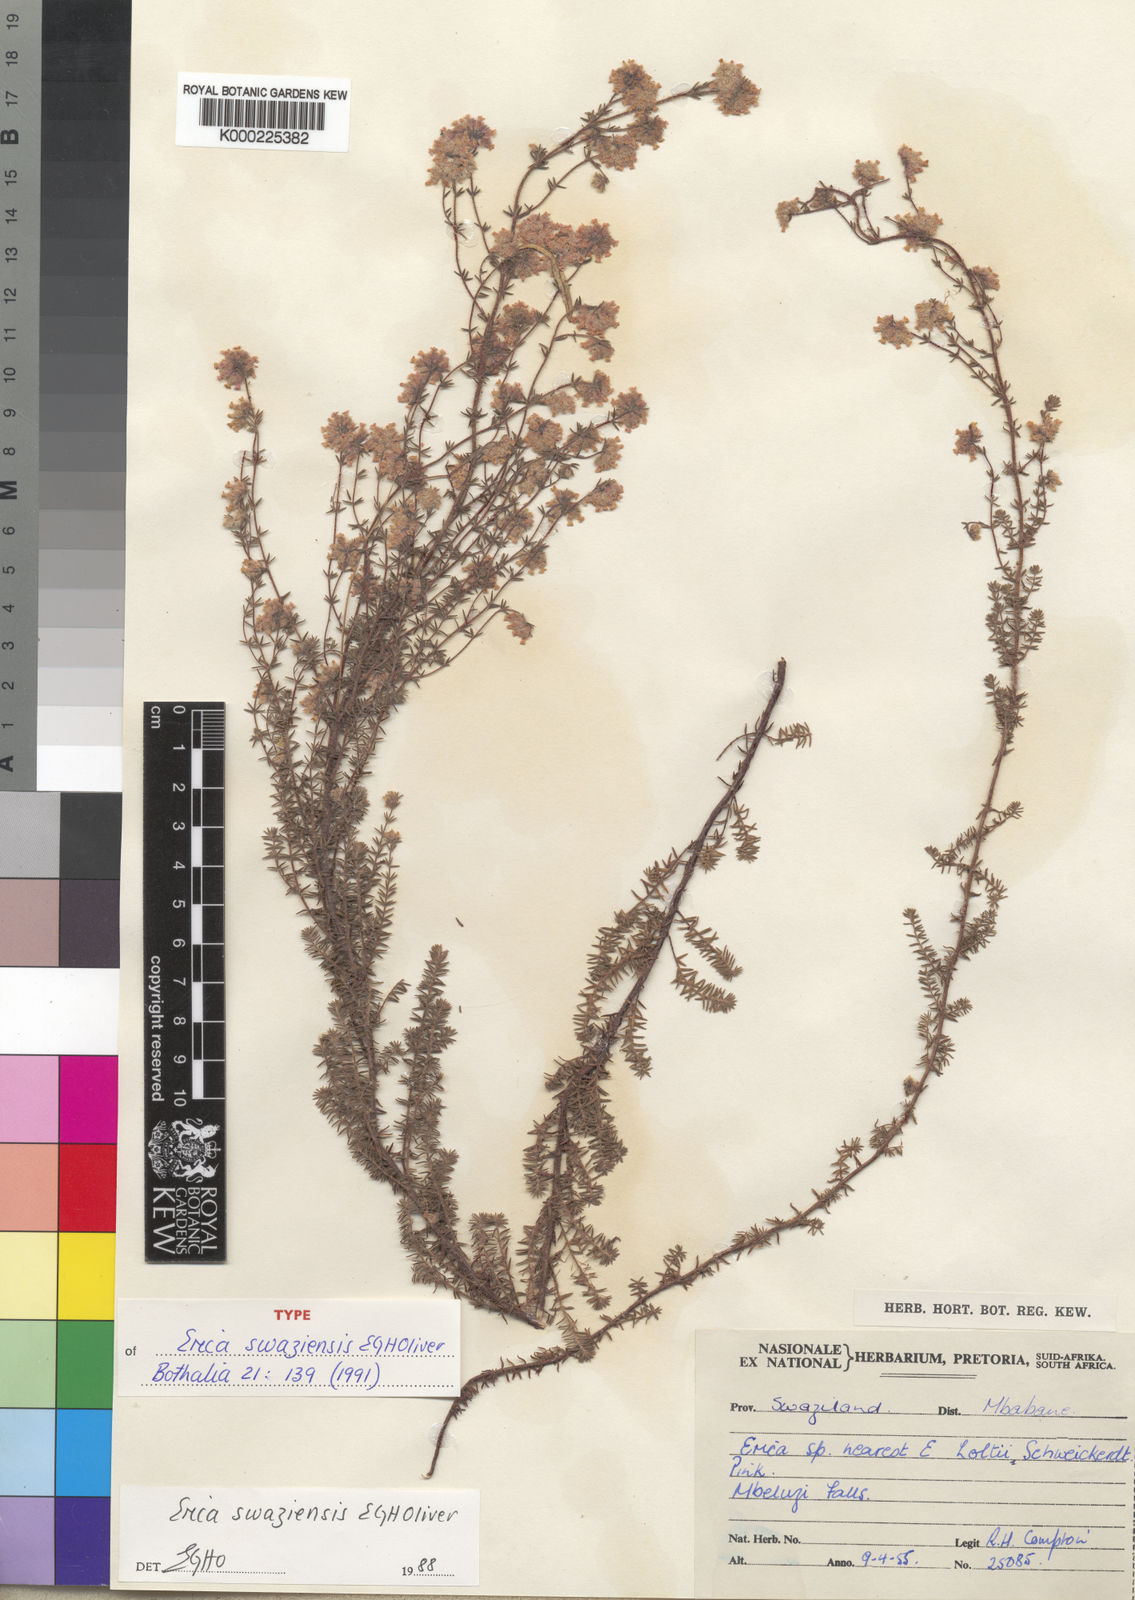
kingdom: Plantae
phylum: Tracheophyta
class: Magnoliopsida
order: Ericales
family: Ericaceae
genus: Erica
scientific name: Erica swaziensis
